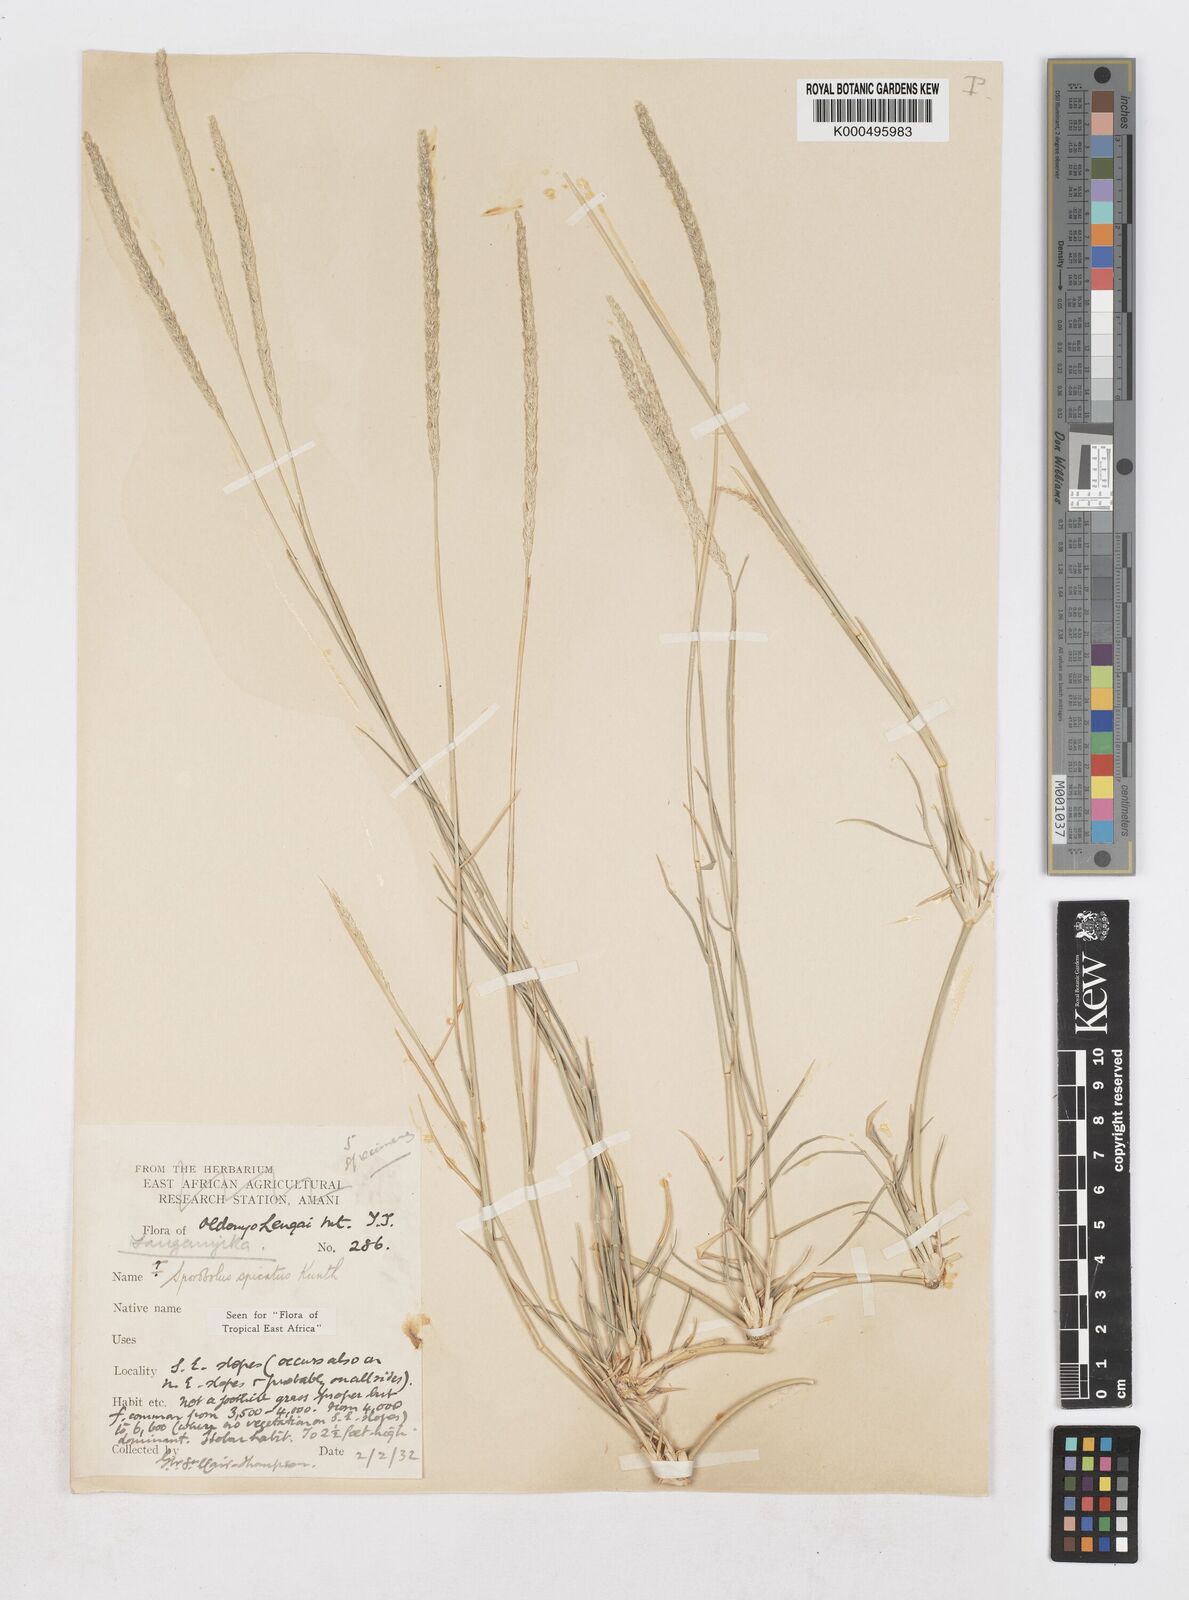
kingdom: Plantae
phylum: Tracheophyta
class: Liliopsida
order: Poales
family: Poaceae
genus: Sporobolus
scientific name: Sporobolus spicatus
